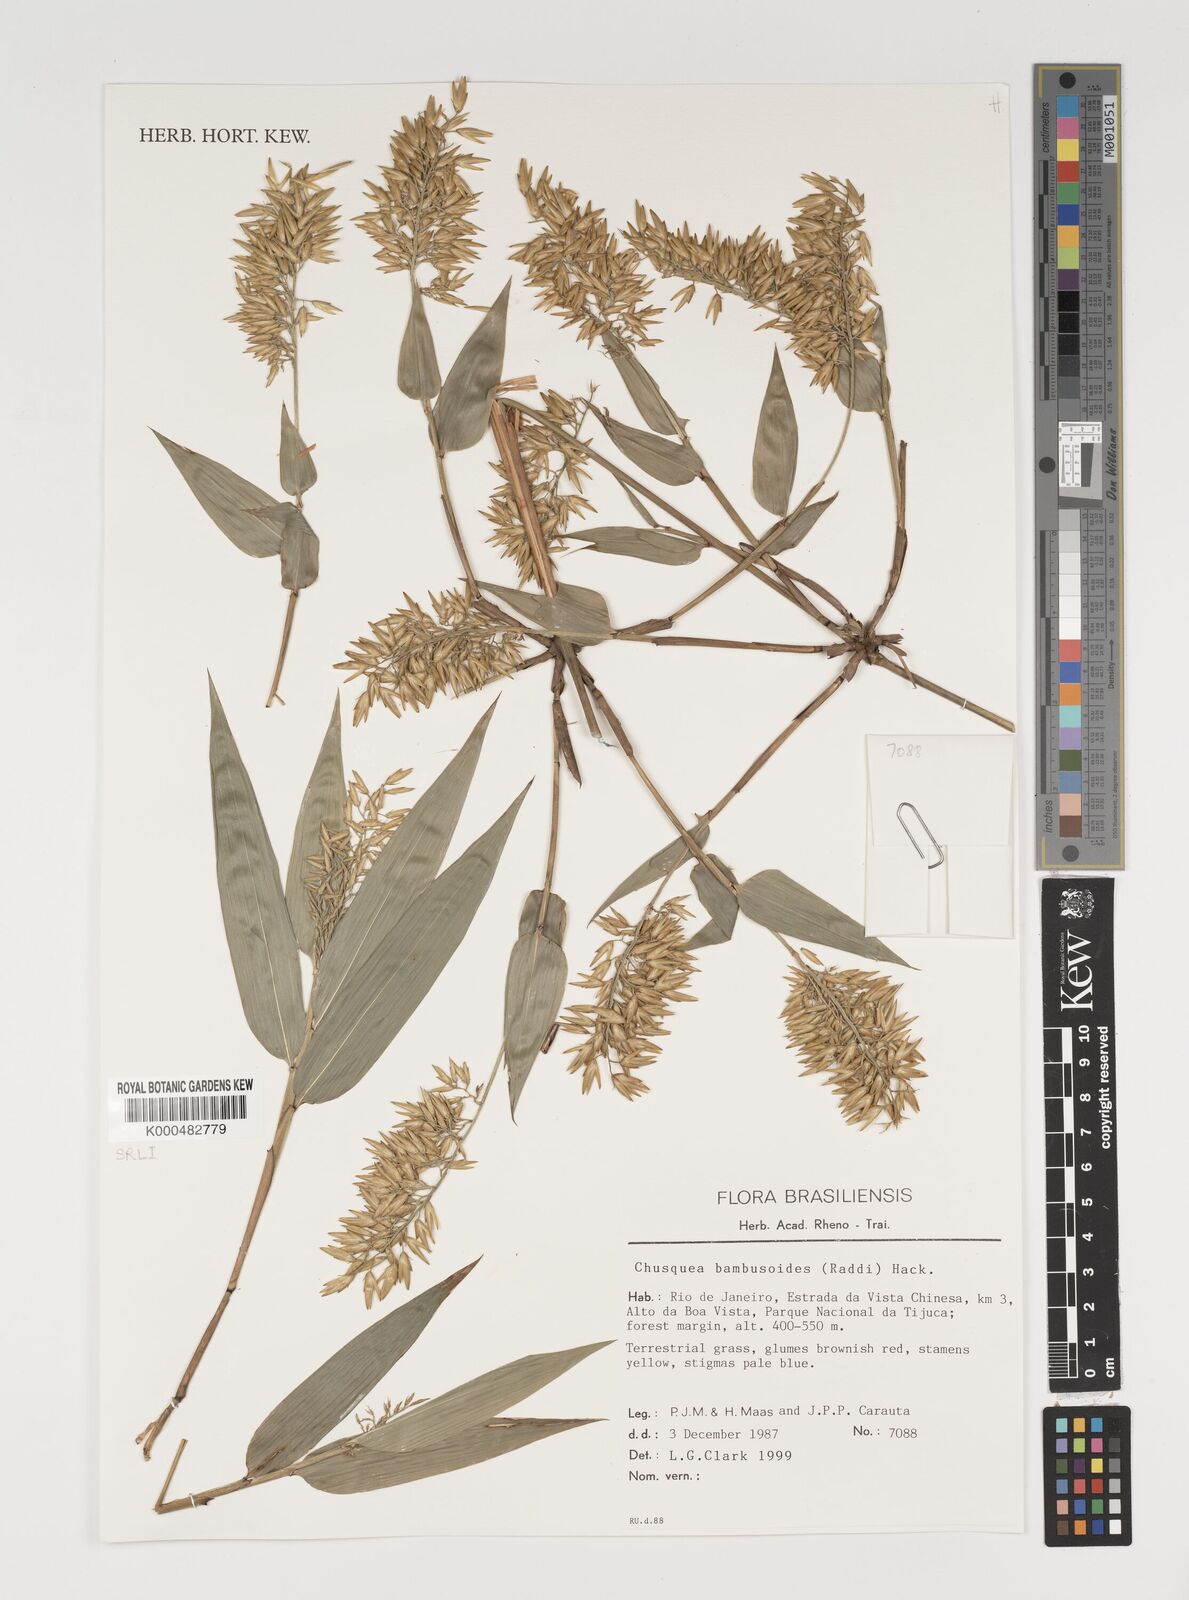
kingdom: Plantae
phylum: Tracheophyta
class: Liliopsida
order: Poales
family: Poaceae
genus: Chusquea
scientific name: Chusquea bambusoides
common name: Brazil scrambling bamboo
